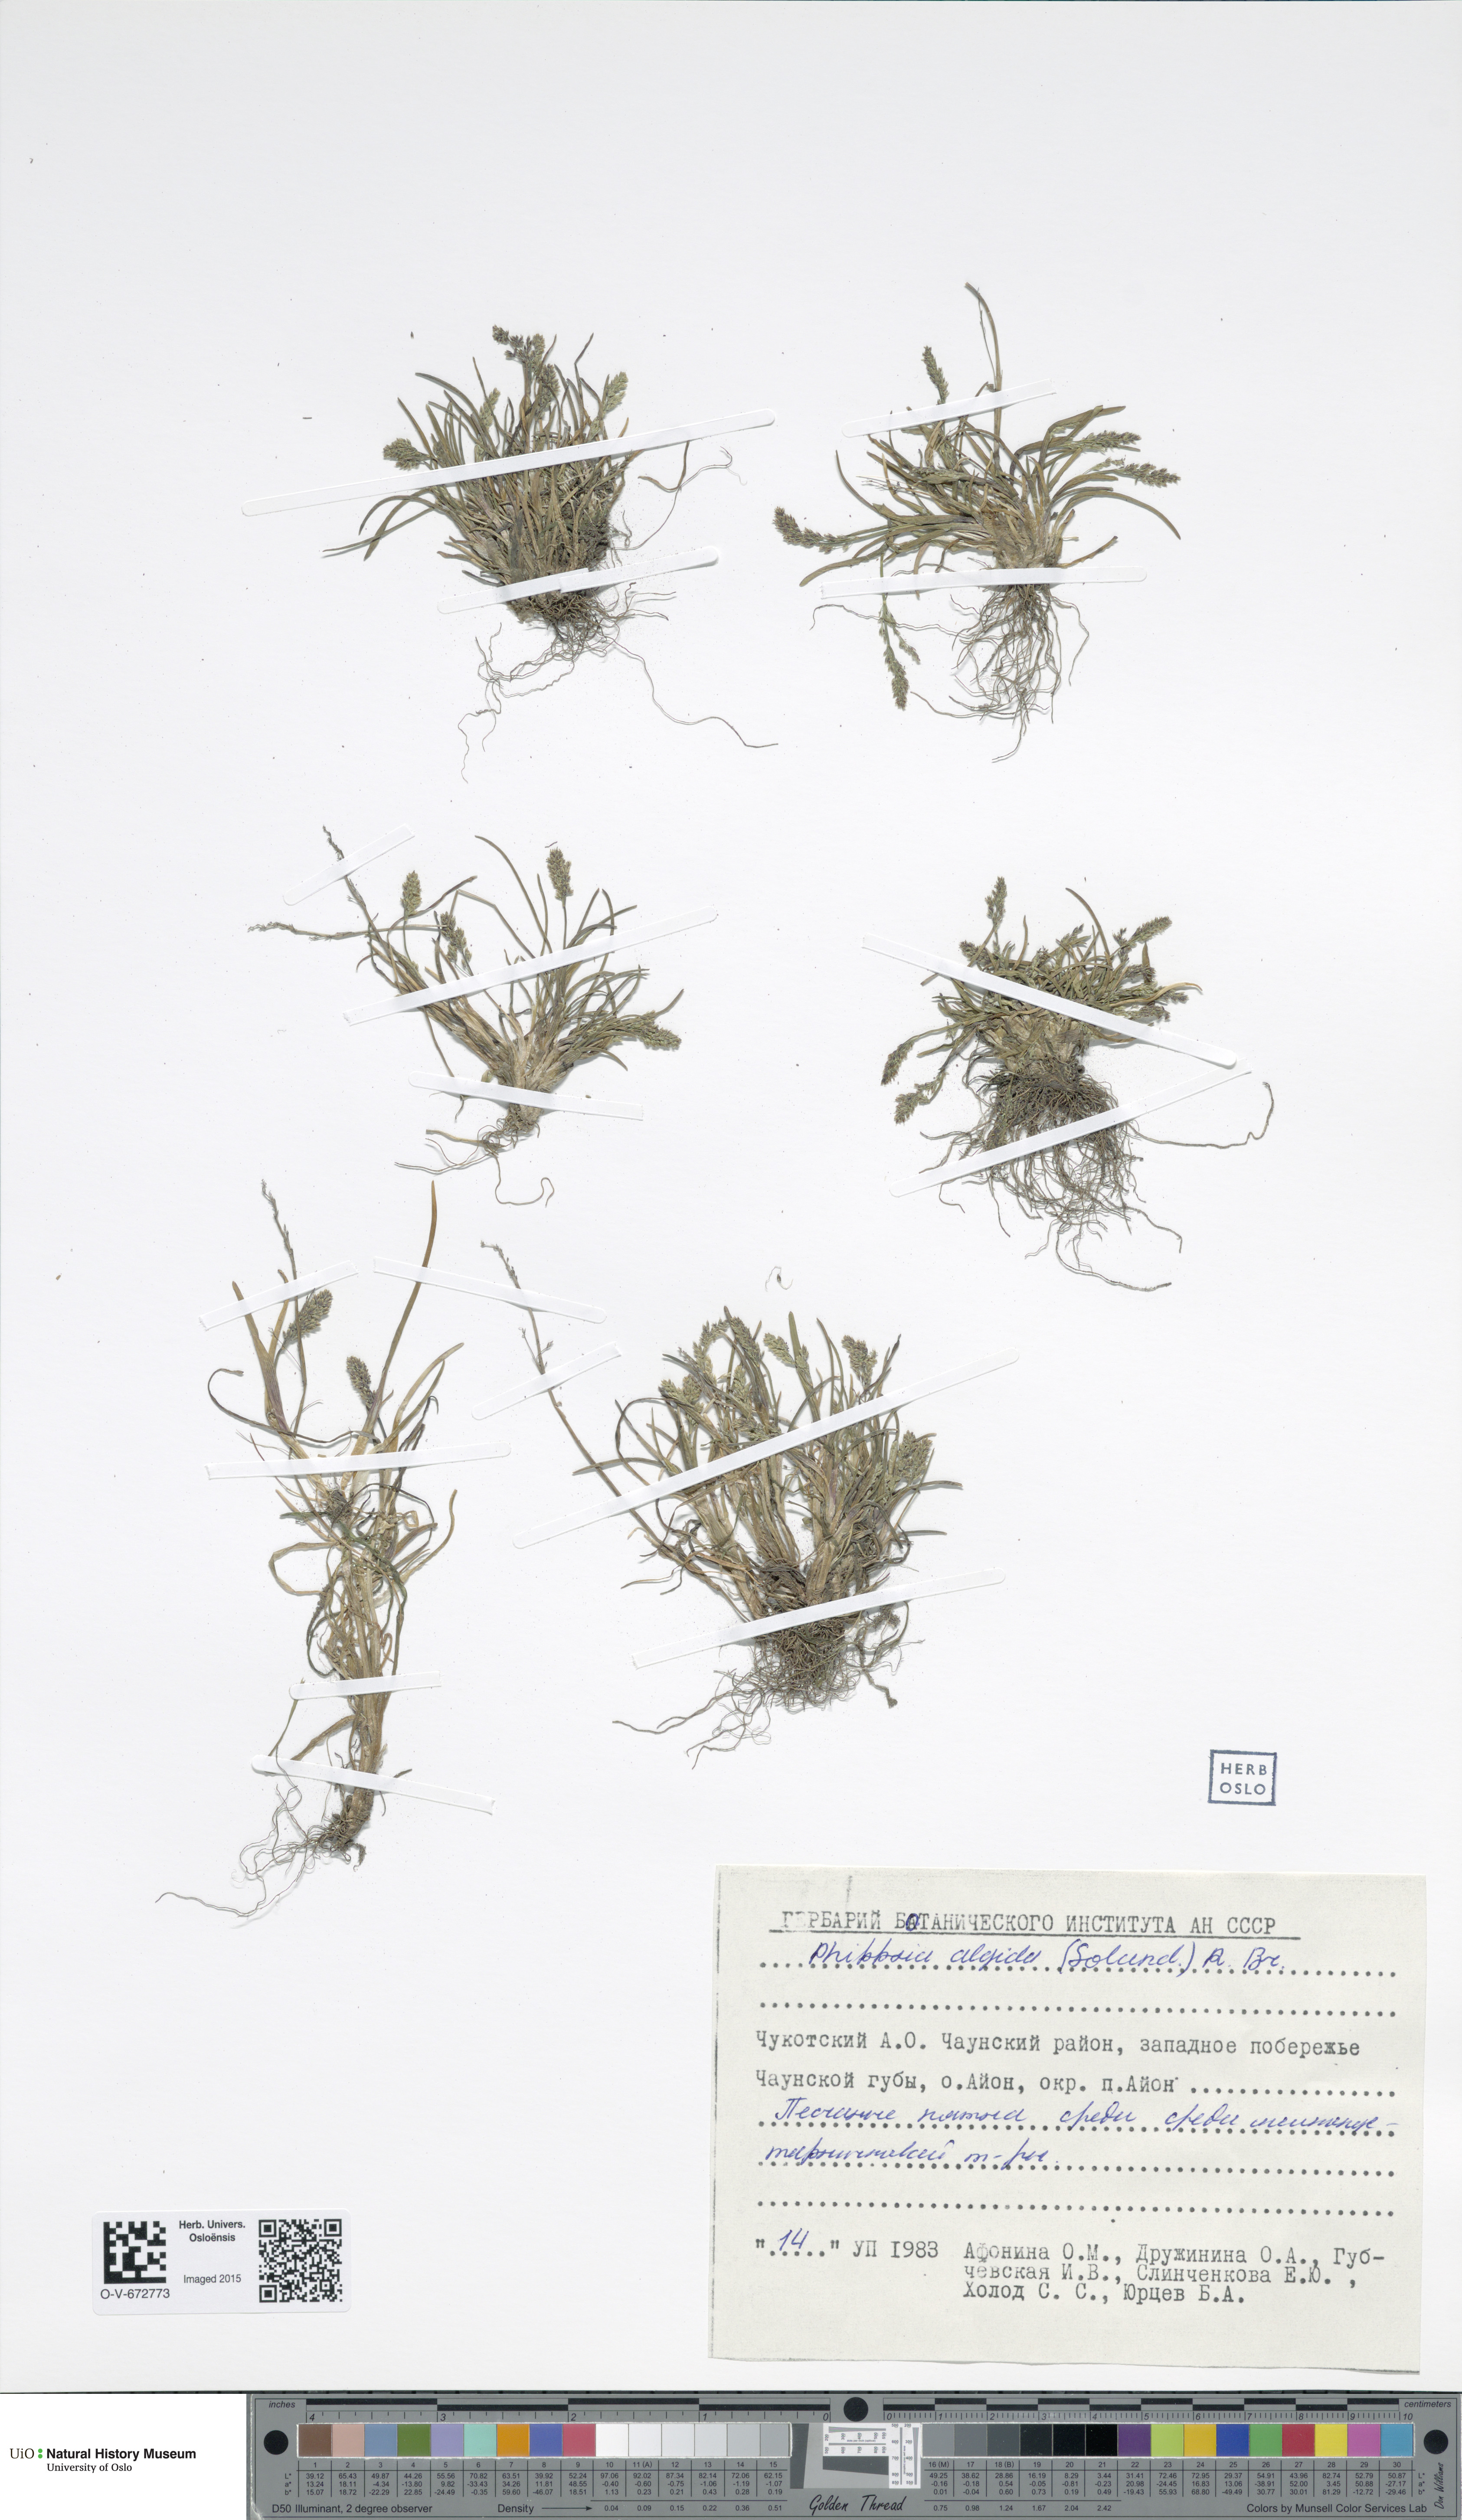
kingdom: Plantae
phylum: Tracheophyta
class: Liliopsida
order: Poales
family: Poaceae
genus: Phippsia
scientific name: Phippsia algida
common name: Ice grass
